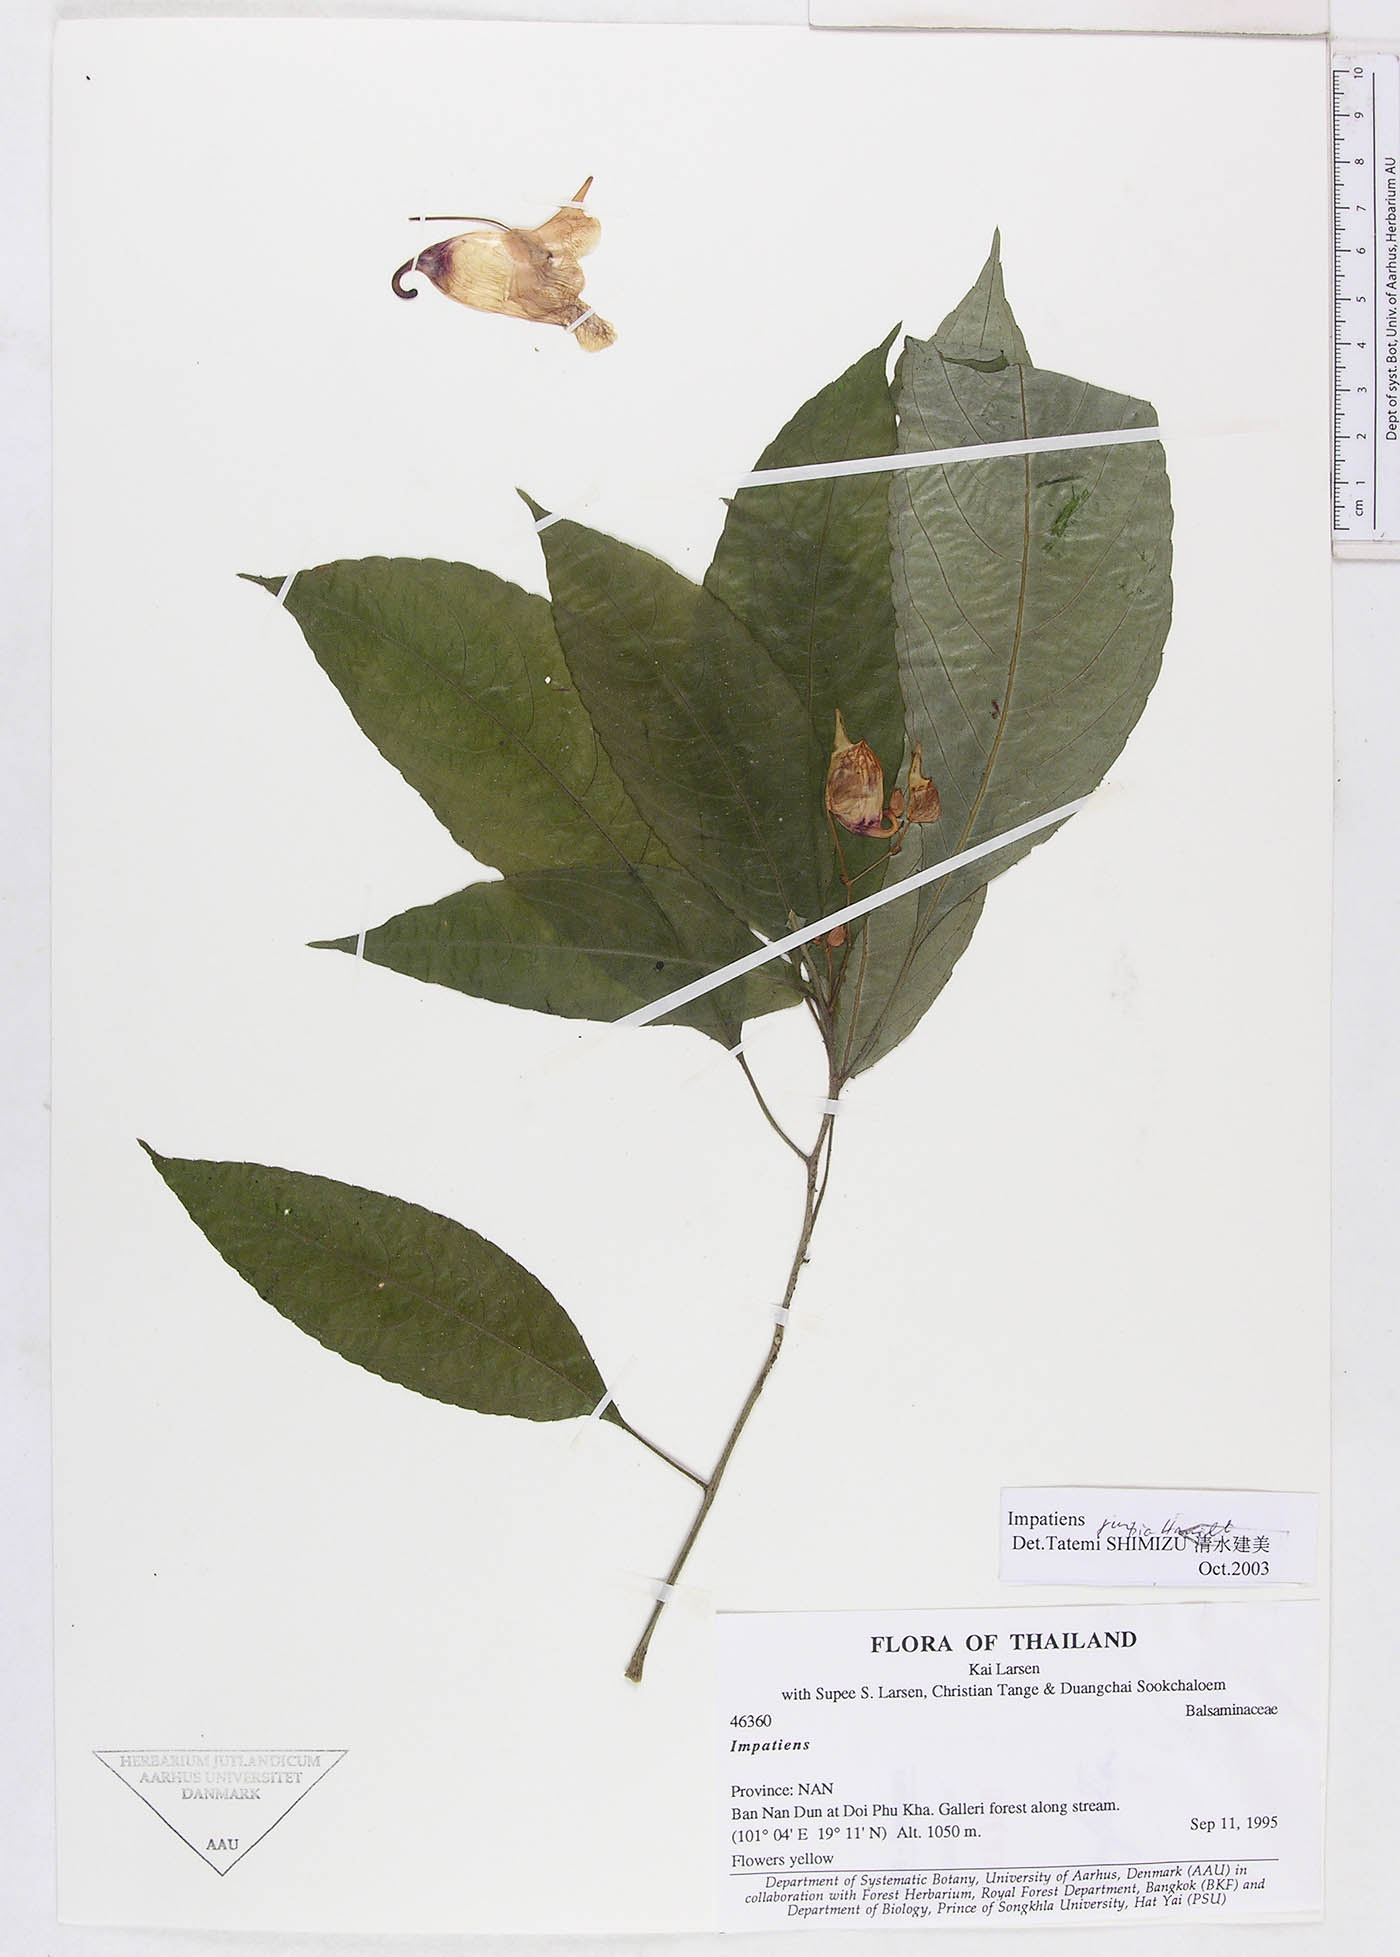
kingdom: Plantae
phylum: Tracheophyta
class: Magnoliopsida
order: Ericales
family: Balsaminaceae
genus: Impatiens
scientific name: Impatiens jurpia
